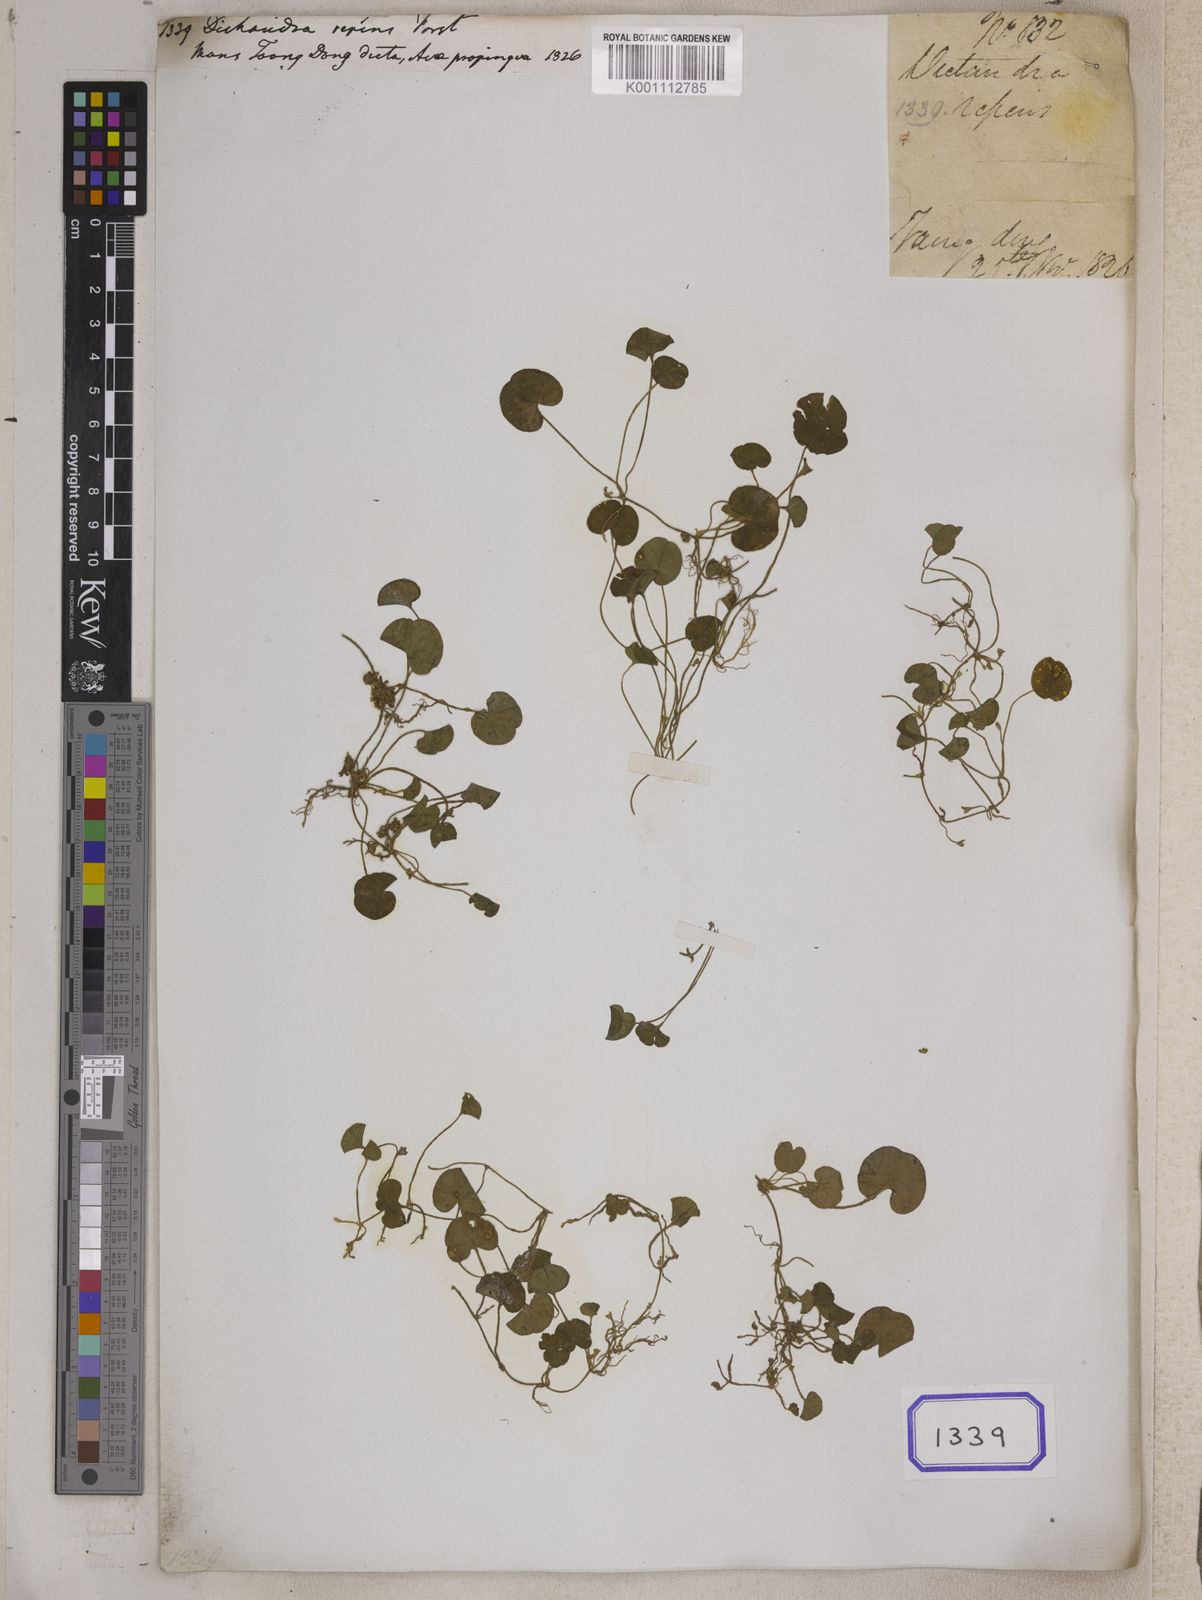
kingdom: Plantae
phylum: Tracheophyta
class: Magnoliopsida
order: Solanales
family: Convolvulaceae
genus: Dichondra
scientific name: Dichondra repens
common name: Kidneyweed
